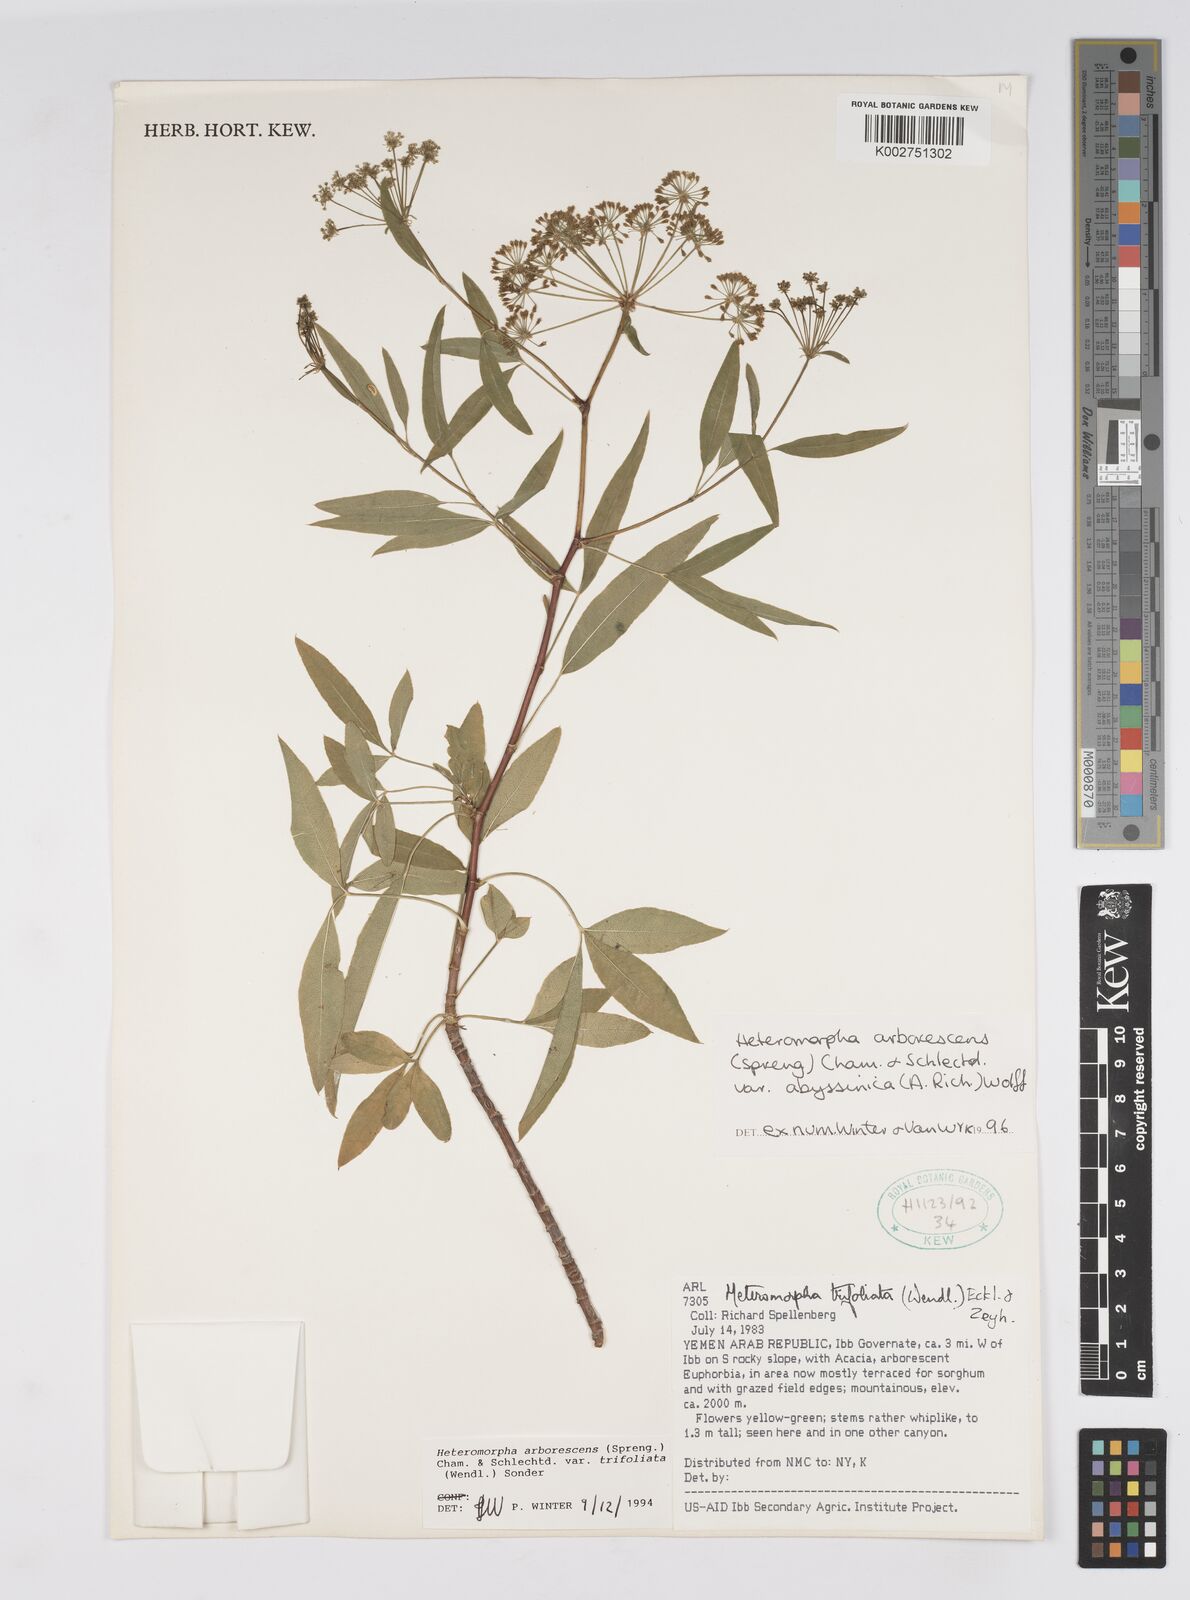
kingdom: Plantae
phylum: Tracheophyta
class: Magnoliopsida
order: Apiales
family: Apiaceae
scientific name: Apiaceae
